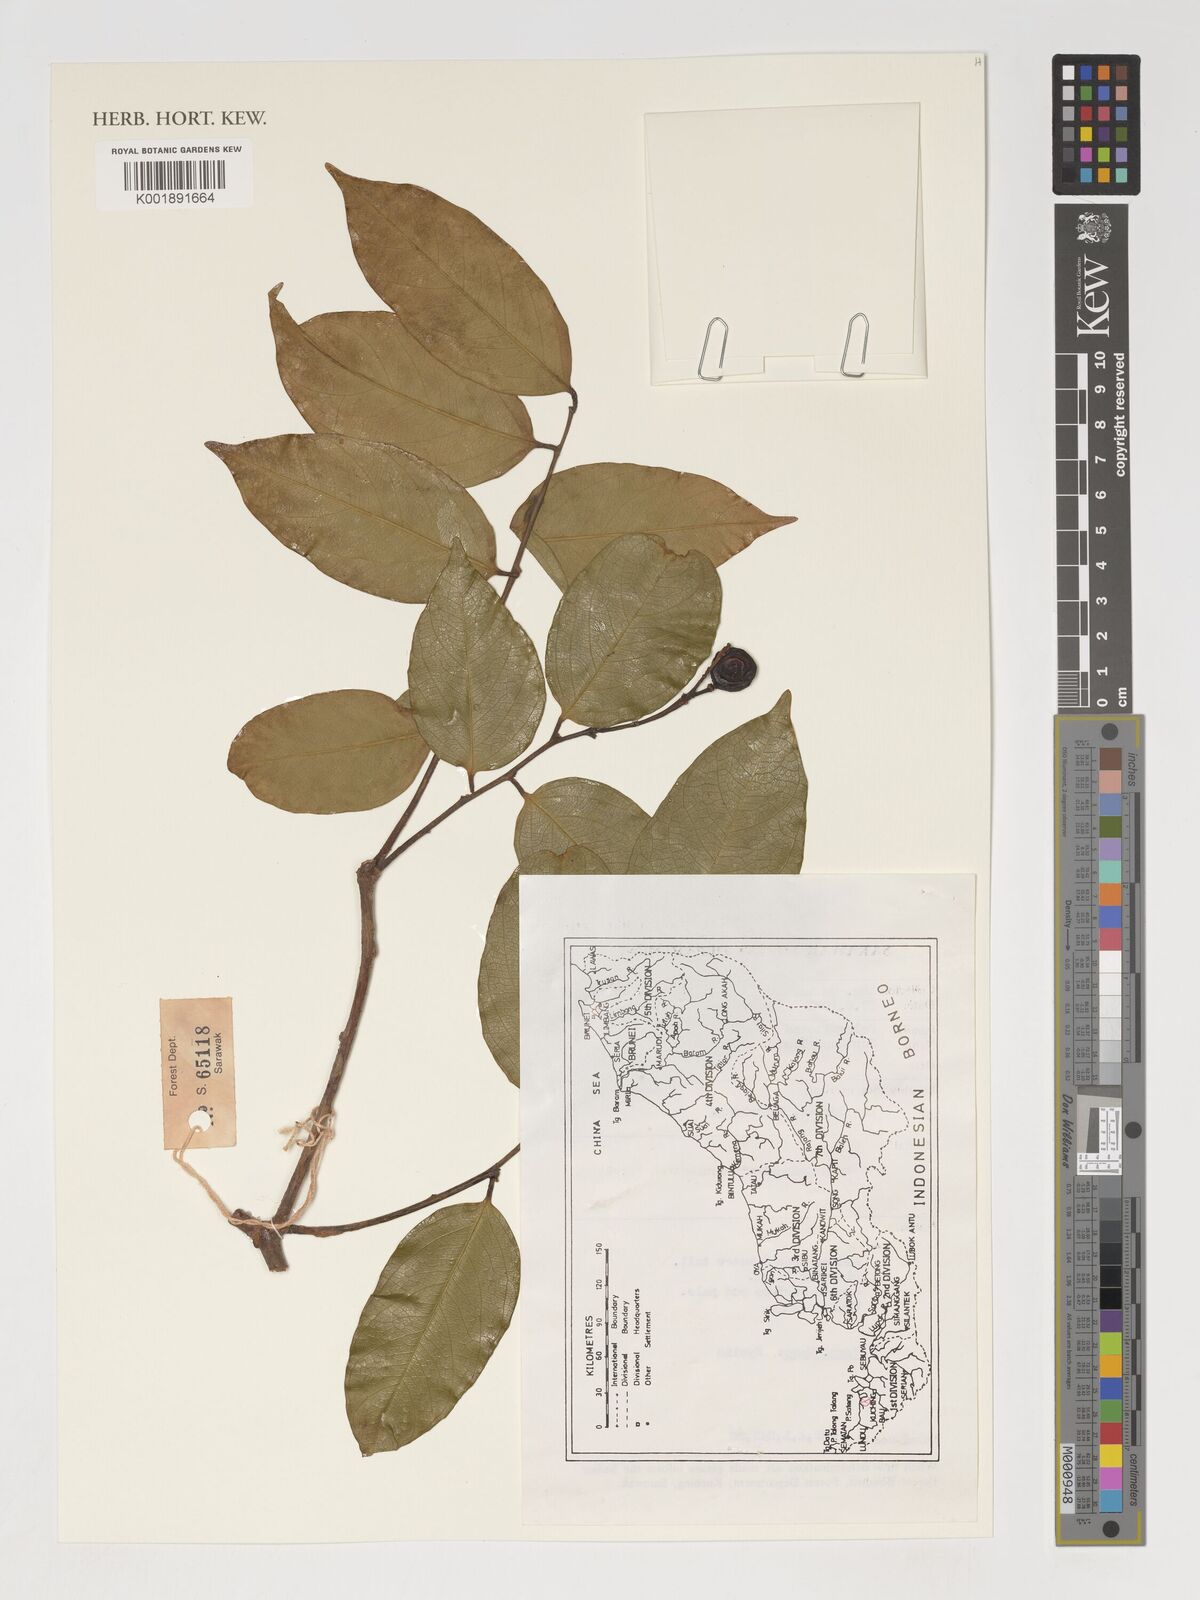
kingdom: Plantae
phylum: Tracheophyta
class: Magnoliopsida
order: Fabales
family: Polygalaceae
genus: Xanthophyllum
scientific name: Xanthophyllum
